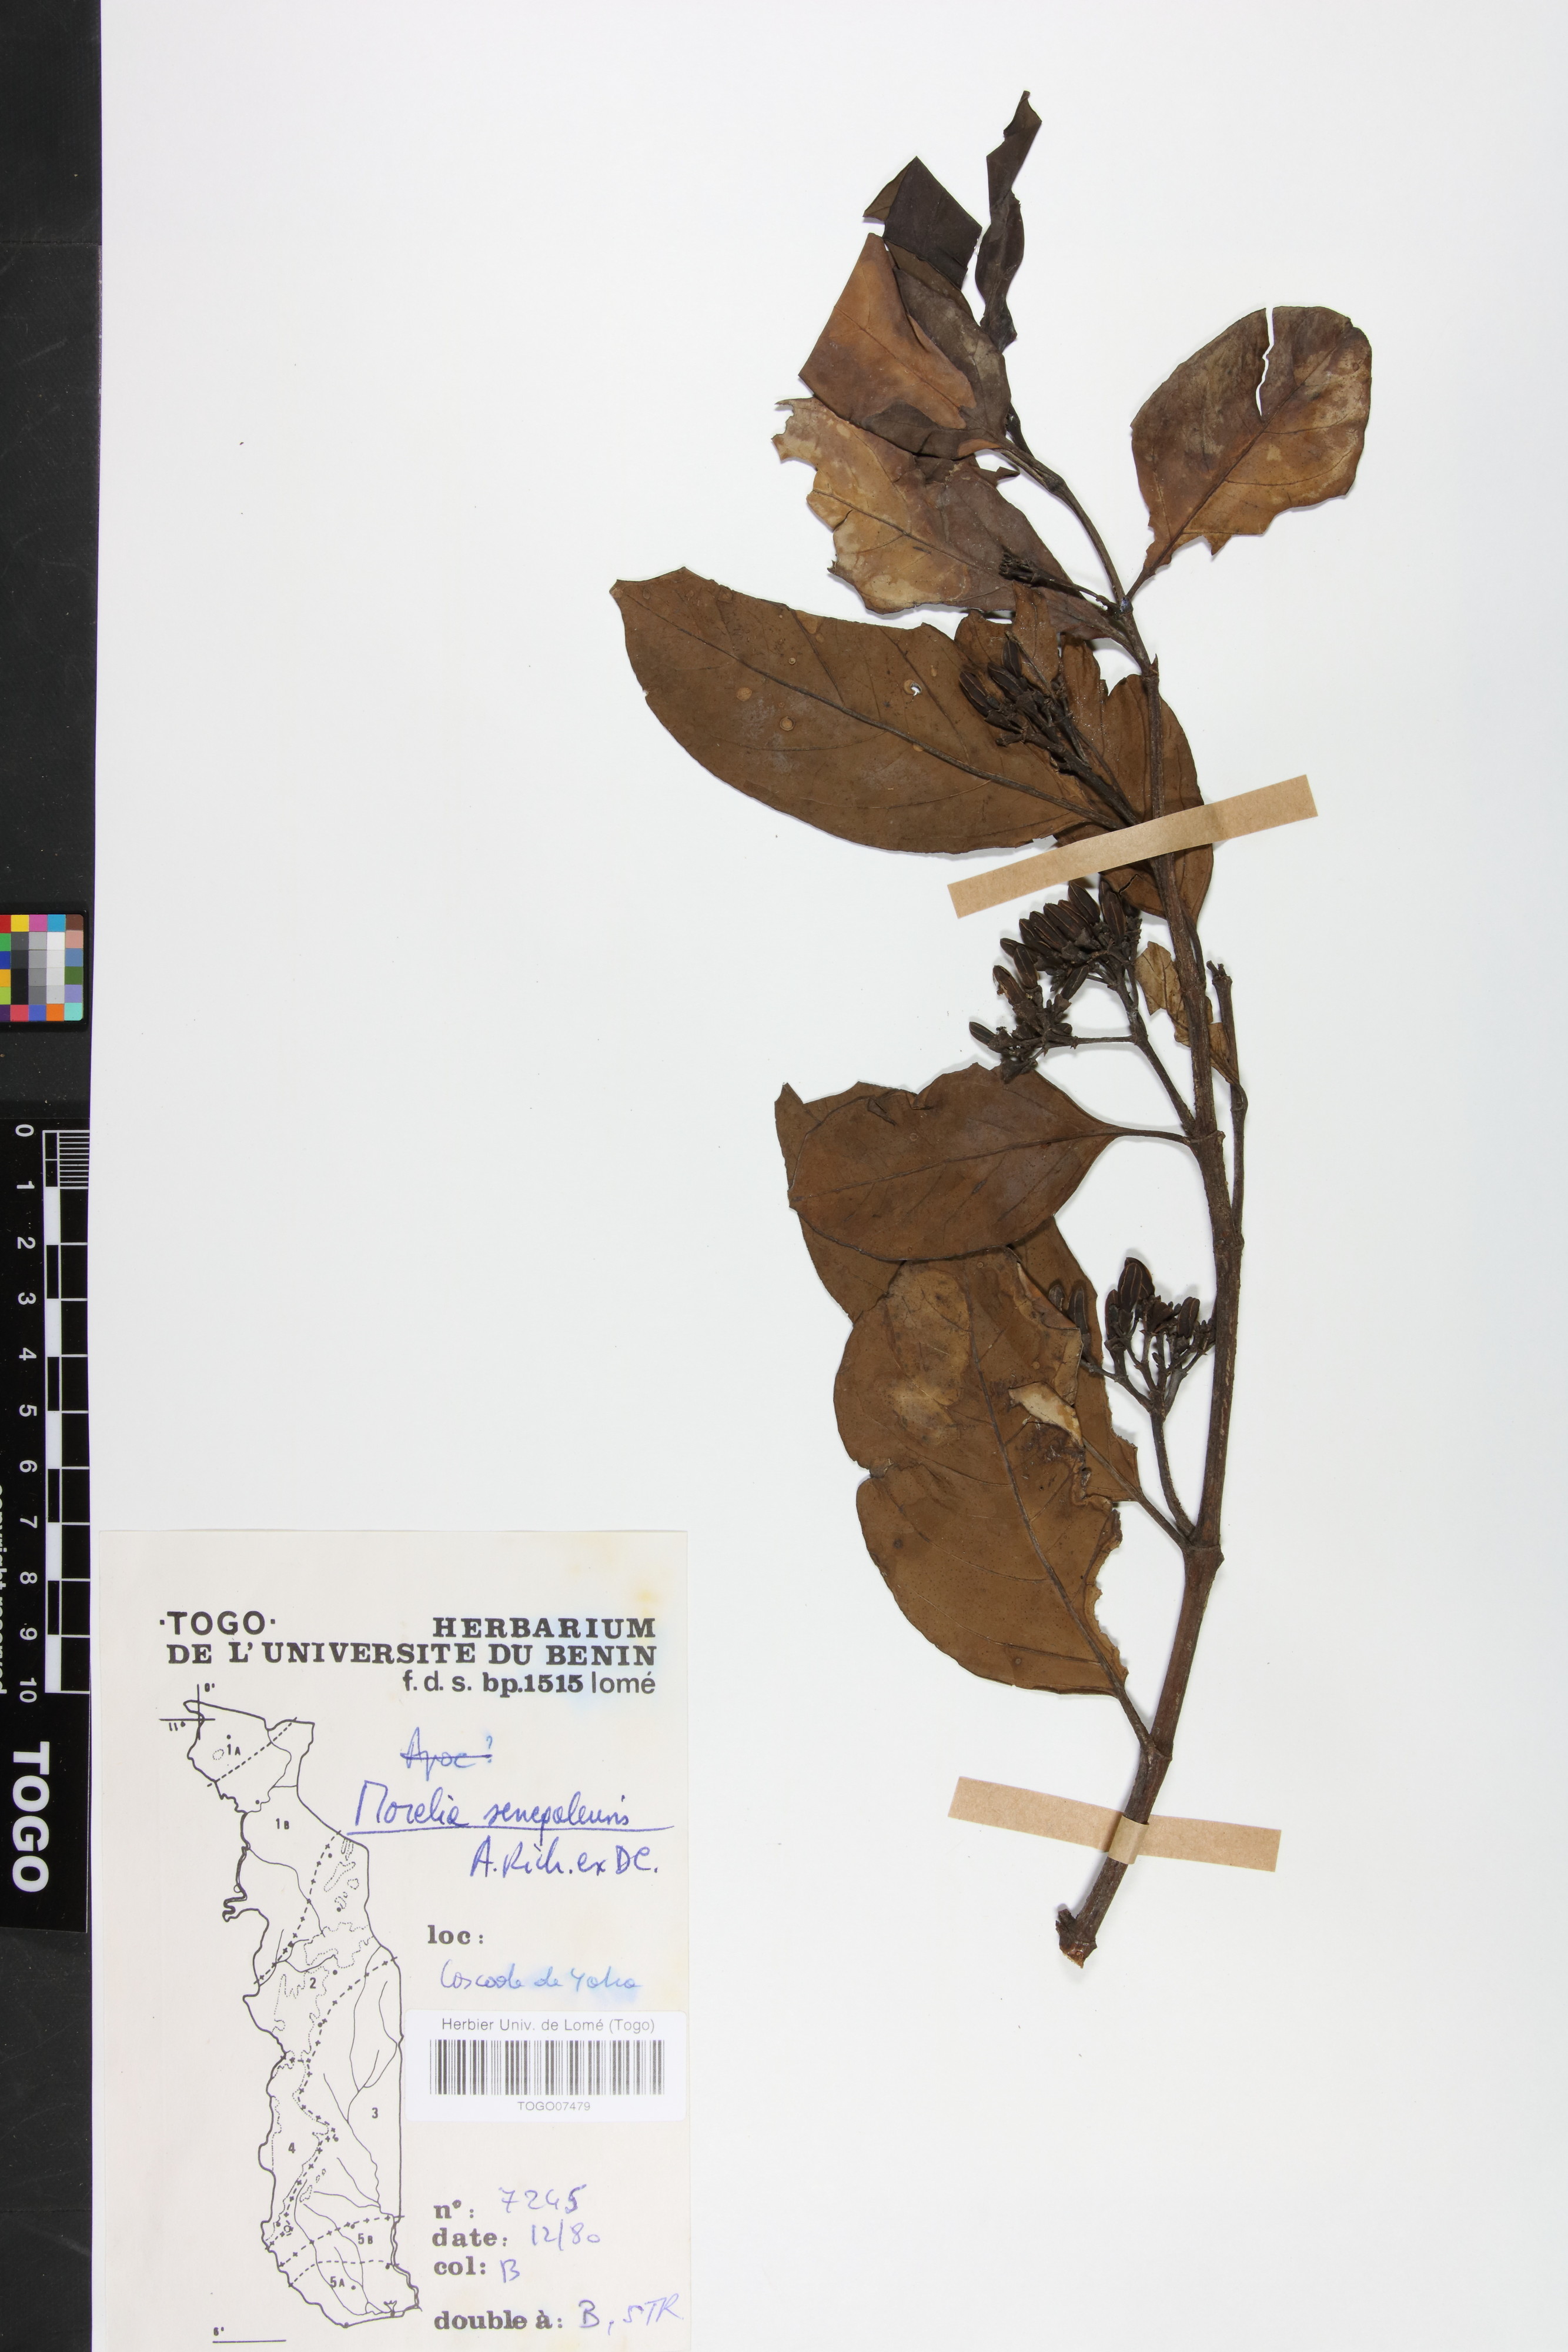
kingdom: Plantae
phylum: Tracheophyta
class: Magnoliopsida
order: Gentianales
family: Rubiaceae
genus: Morelia
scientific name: Morelia senegalensis
